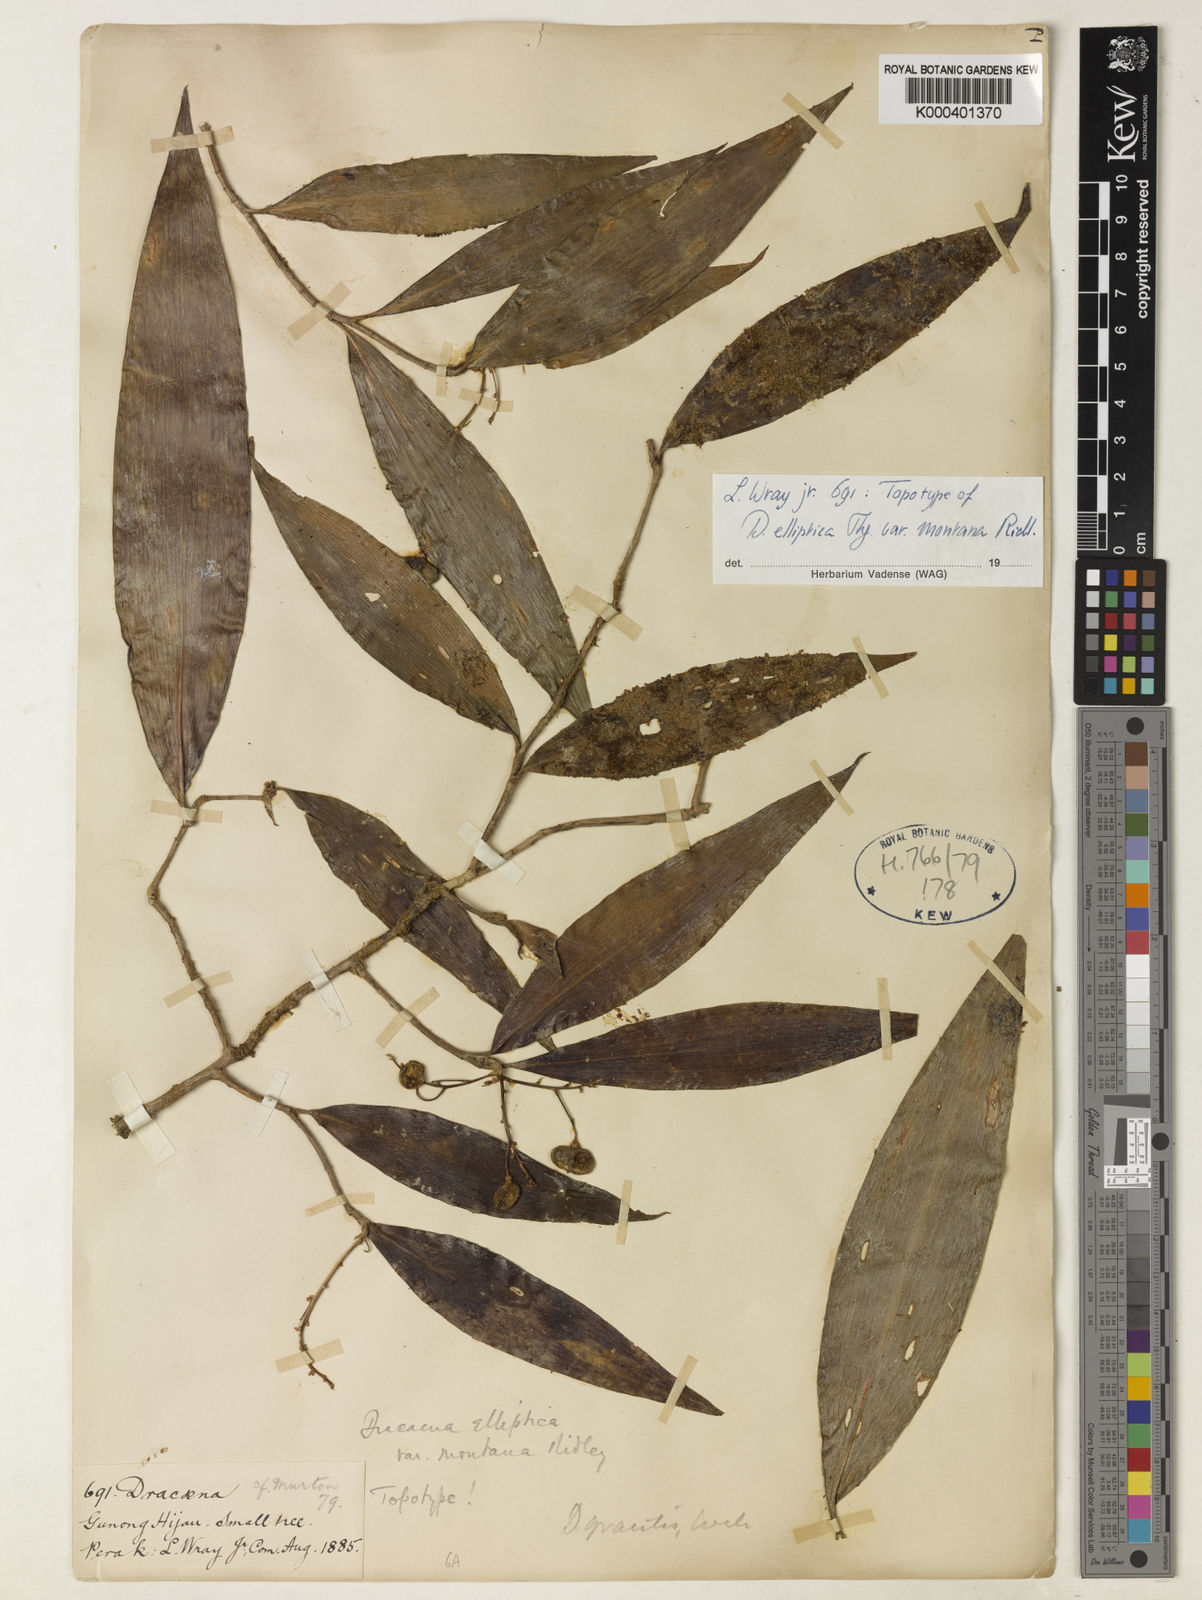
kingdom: Plantae
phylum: Tracheophyta
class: Liliopsida
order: Asparagales
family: Asparagaceae
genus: Dracaena
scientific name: Dracaena elliptica
